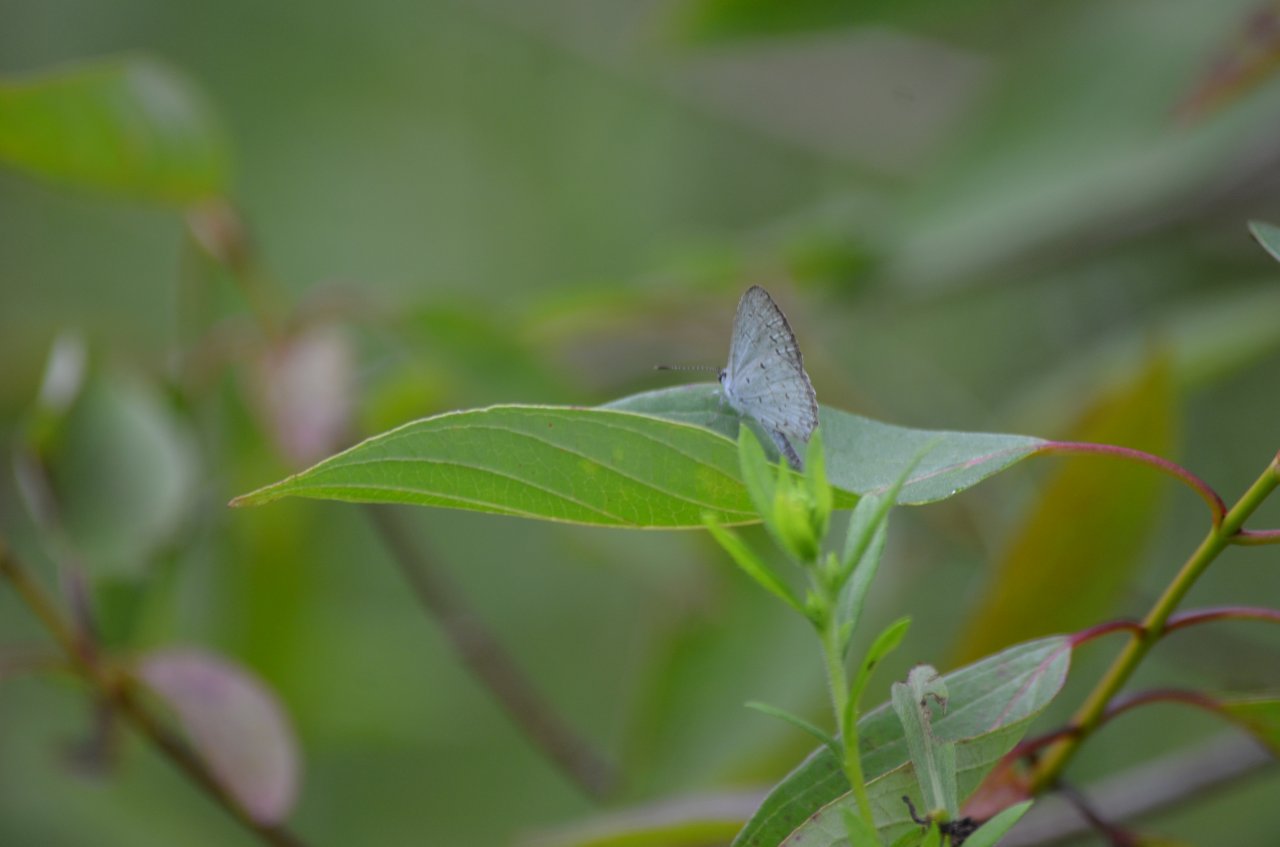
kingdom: Animalia
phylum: Arthropoda
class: Insecta
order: Lepidoptera
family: Lycaenidae
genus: Celastrina
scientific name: Celastrina lucia
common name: Northern Spring Azure
